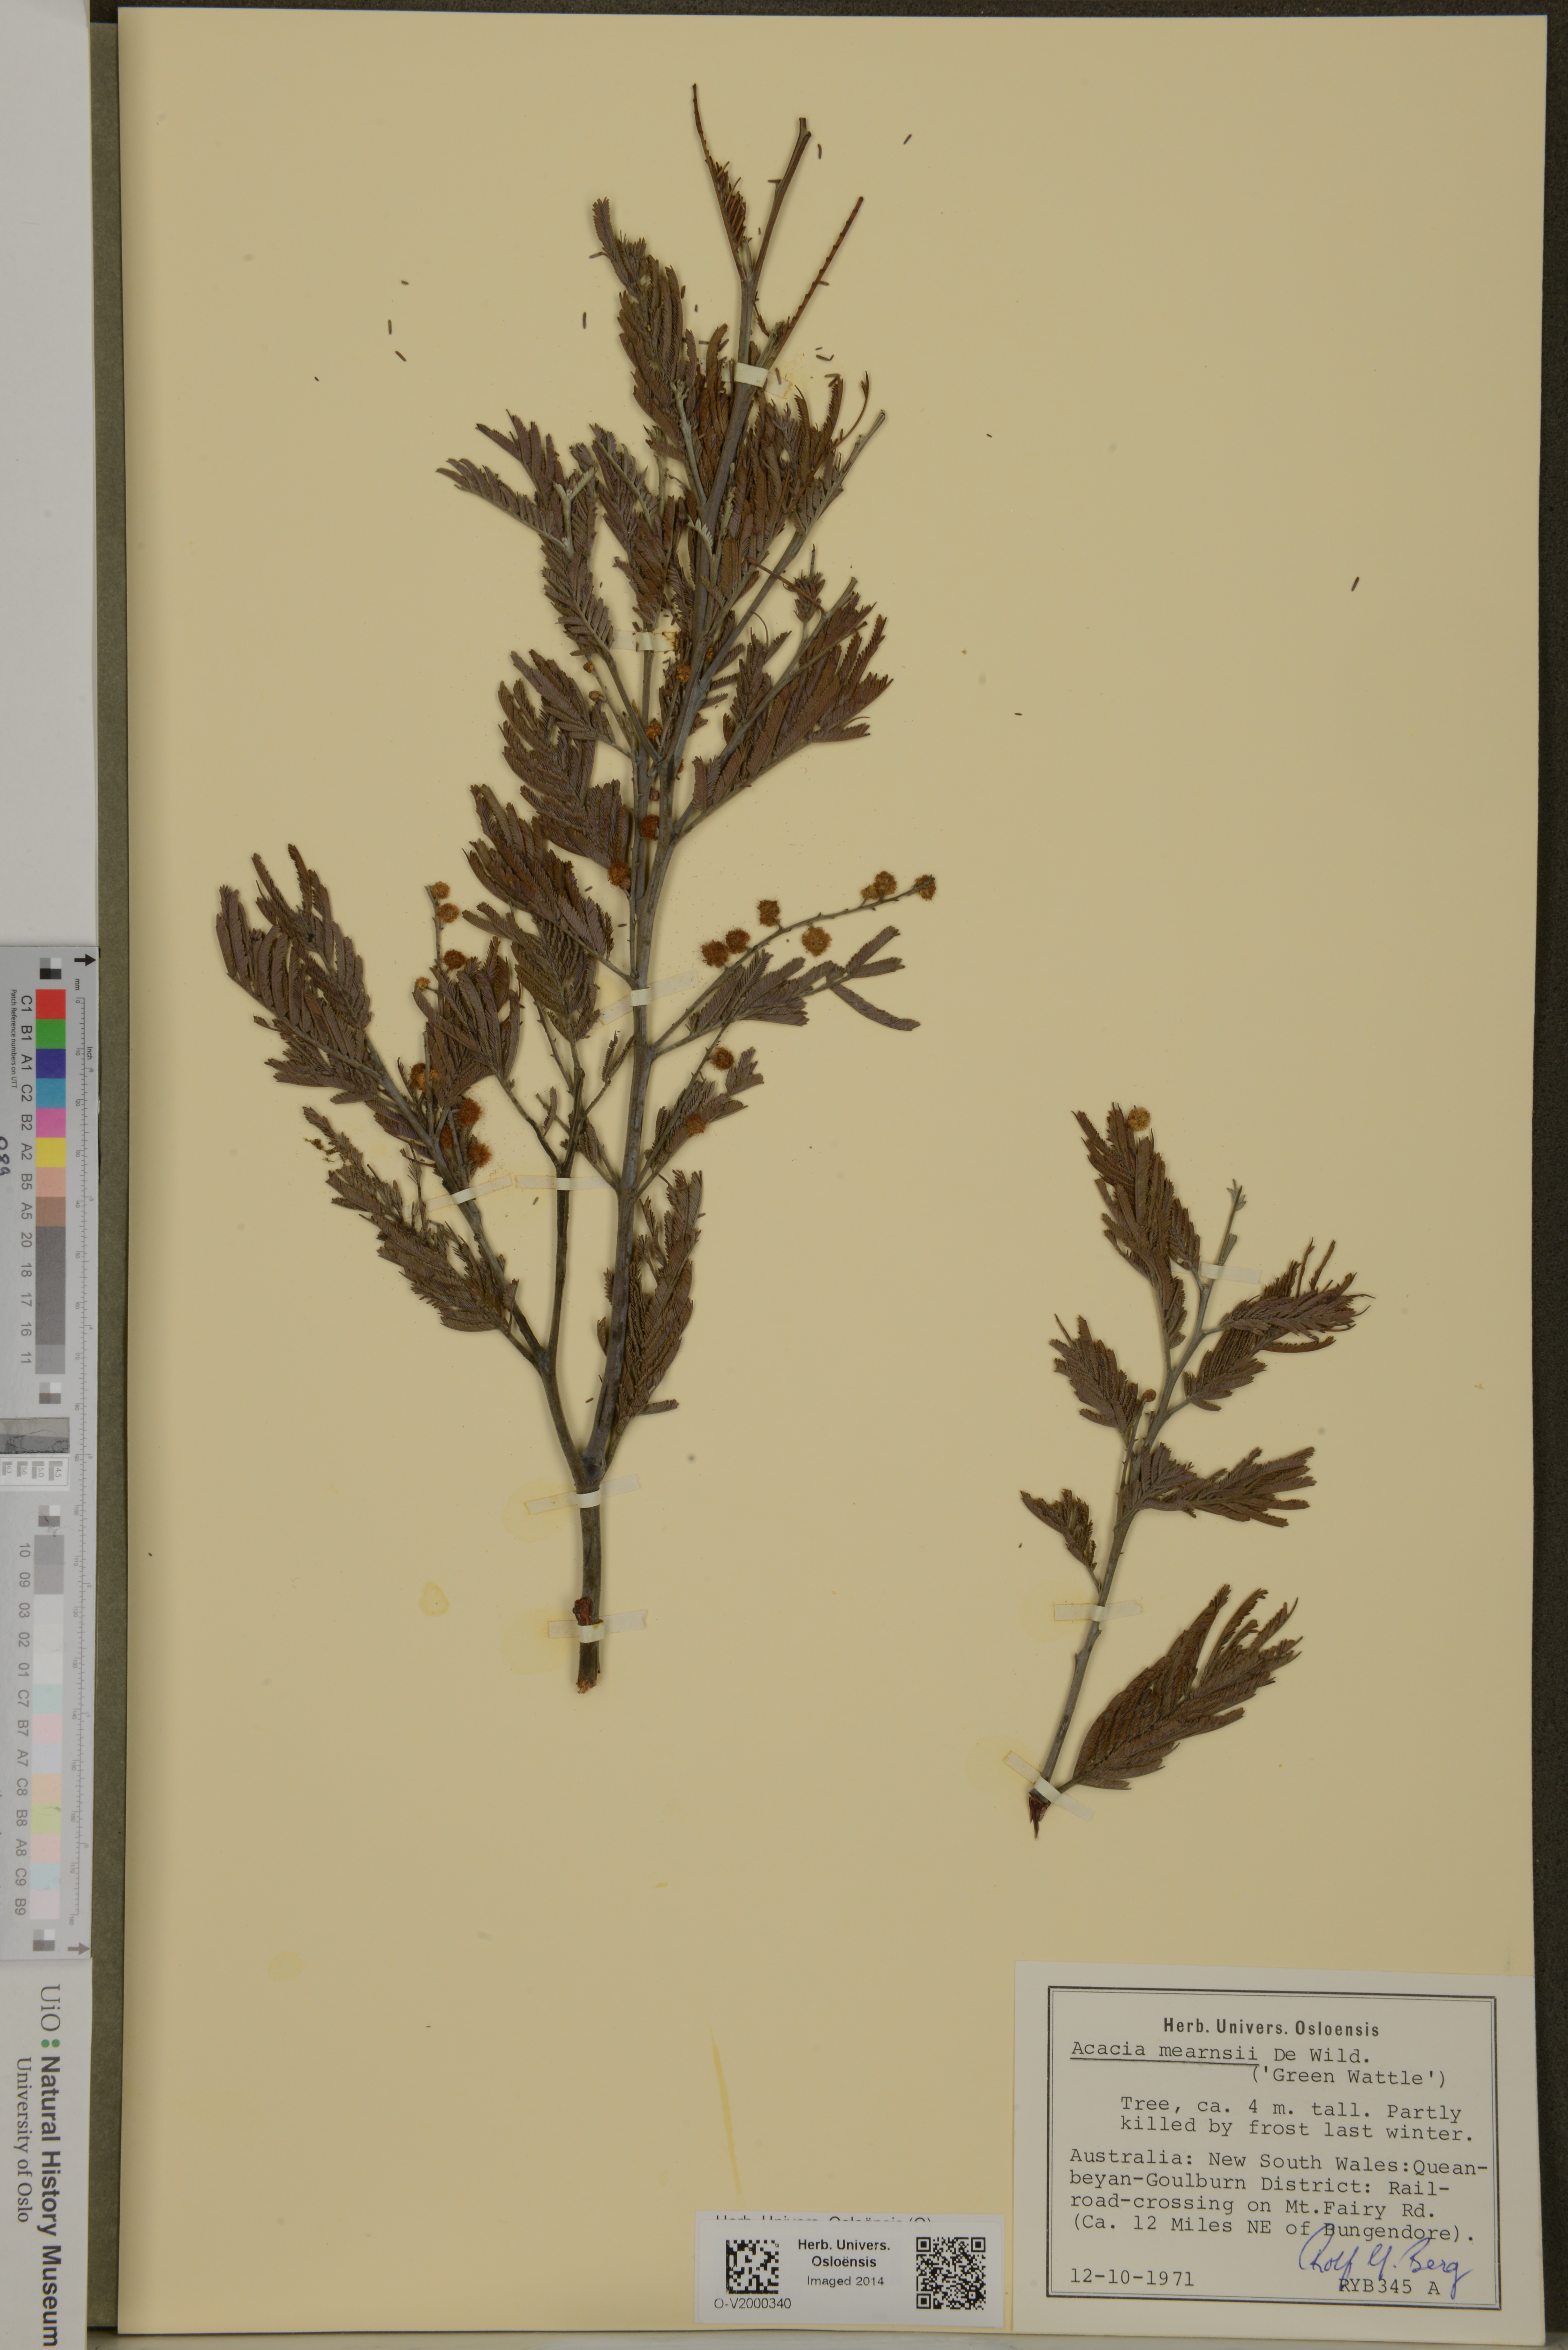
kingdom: Plantae
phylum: Tracheophyta
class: Magnoliopsida
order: Fabales
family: Fabaceae
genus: Acacia
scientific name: Acacia mearnsii
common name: Black wattle
